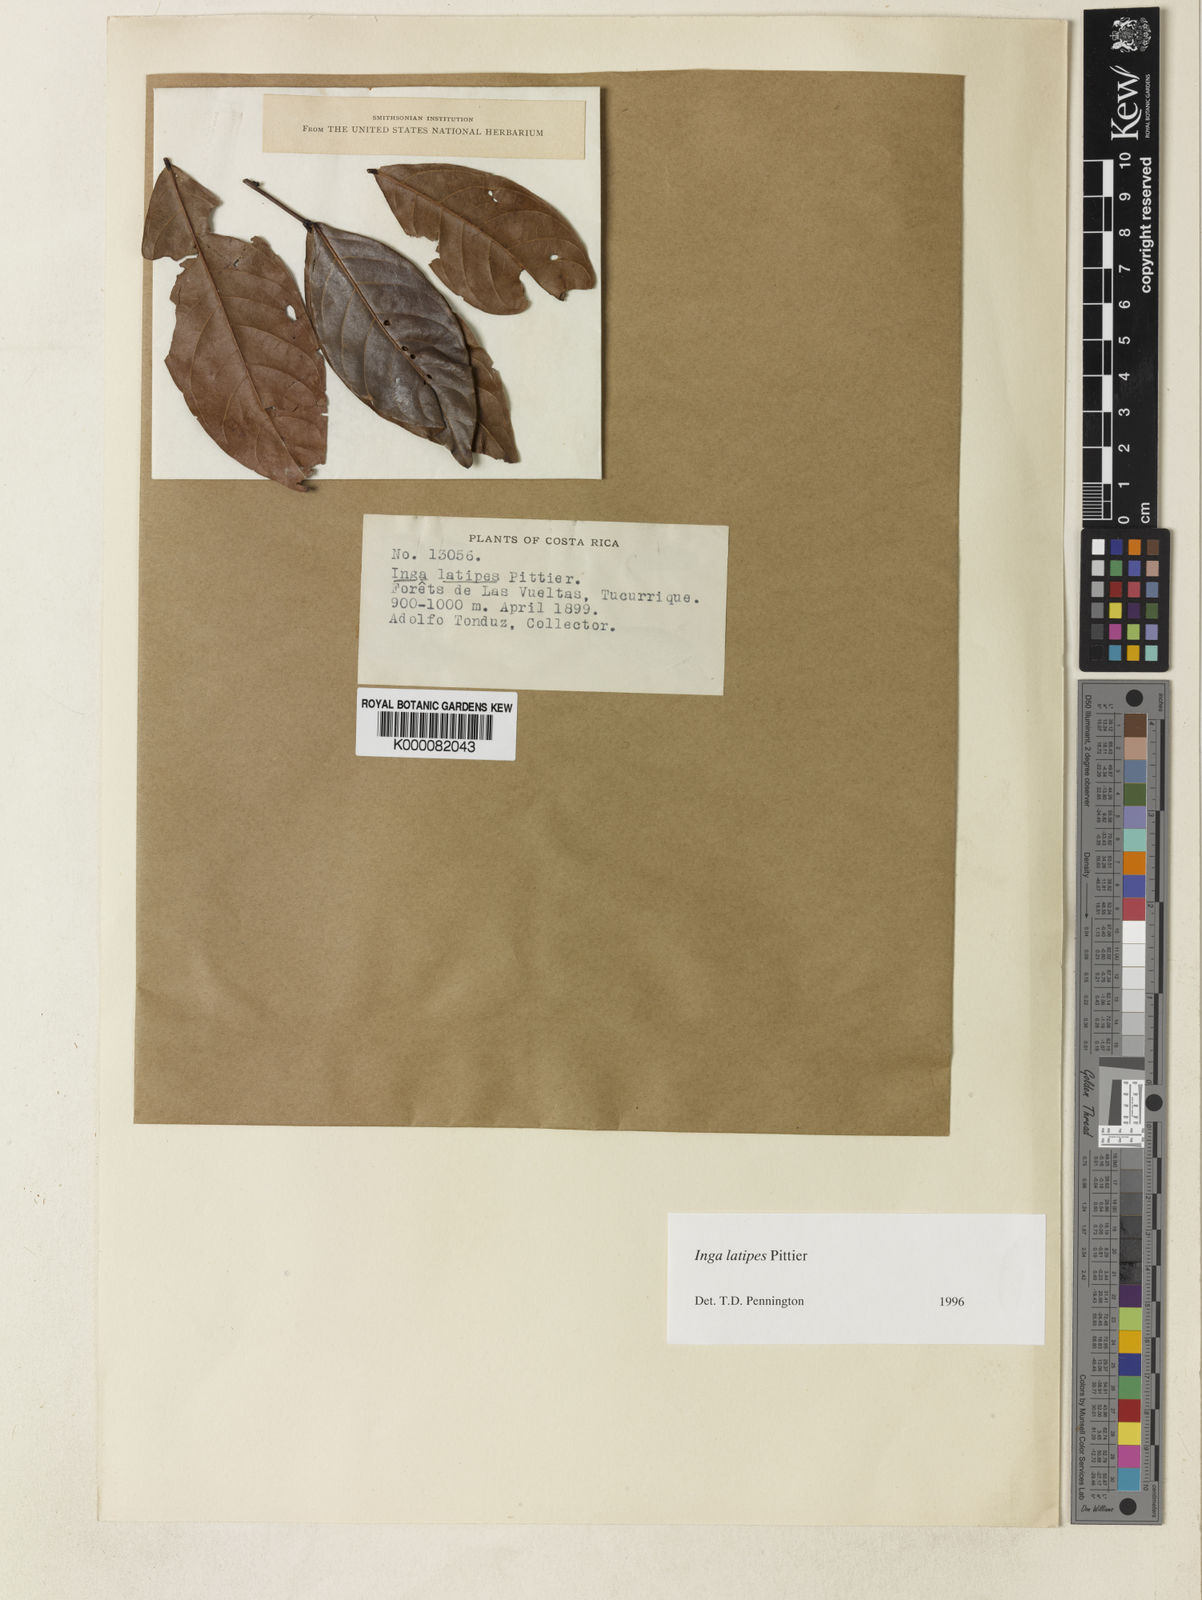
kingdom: Plantae
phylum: Tracheophyta
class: Magnoliopsida
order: Fabales
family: Fabaceae
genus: Inga
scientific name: Inga latipes
